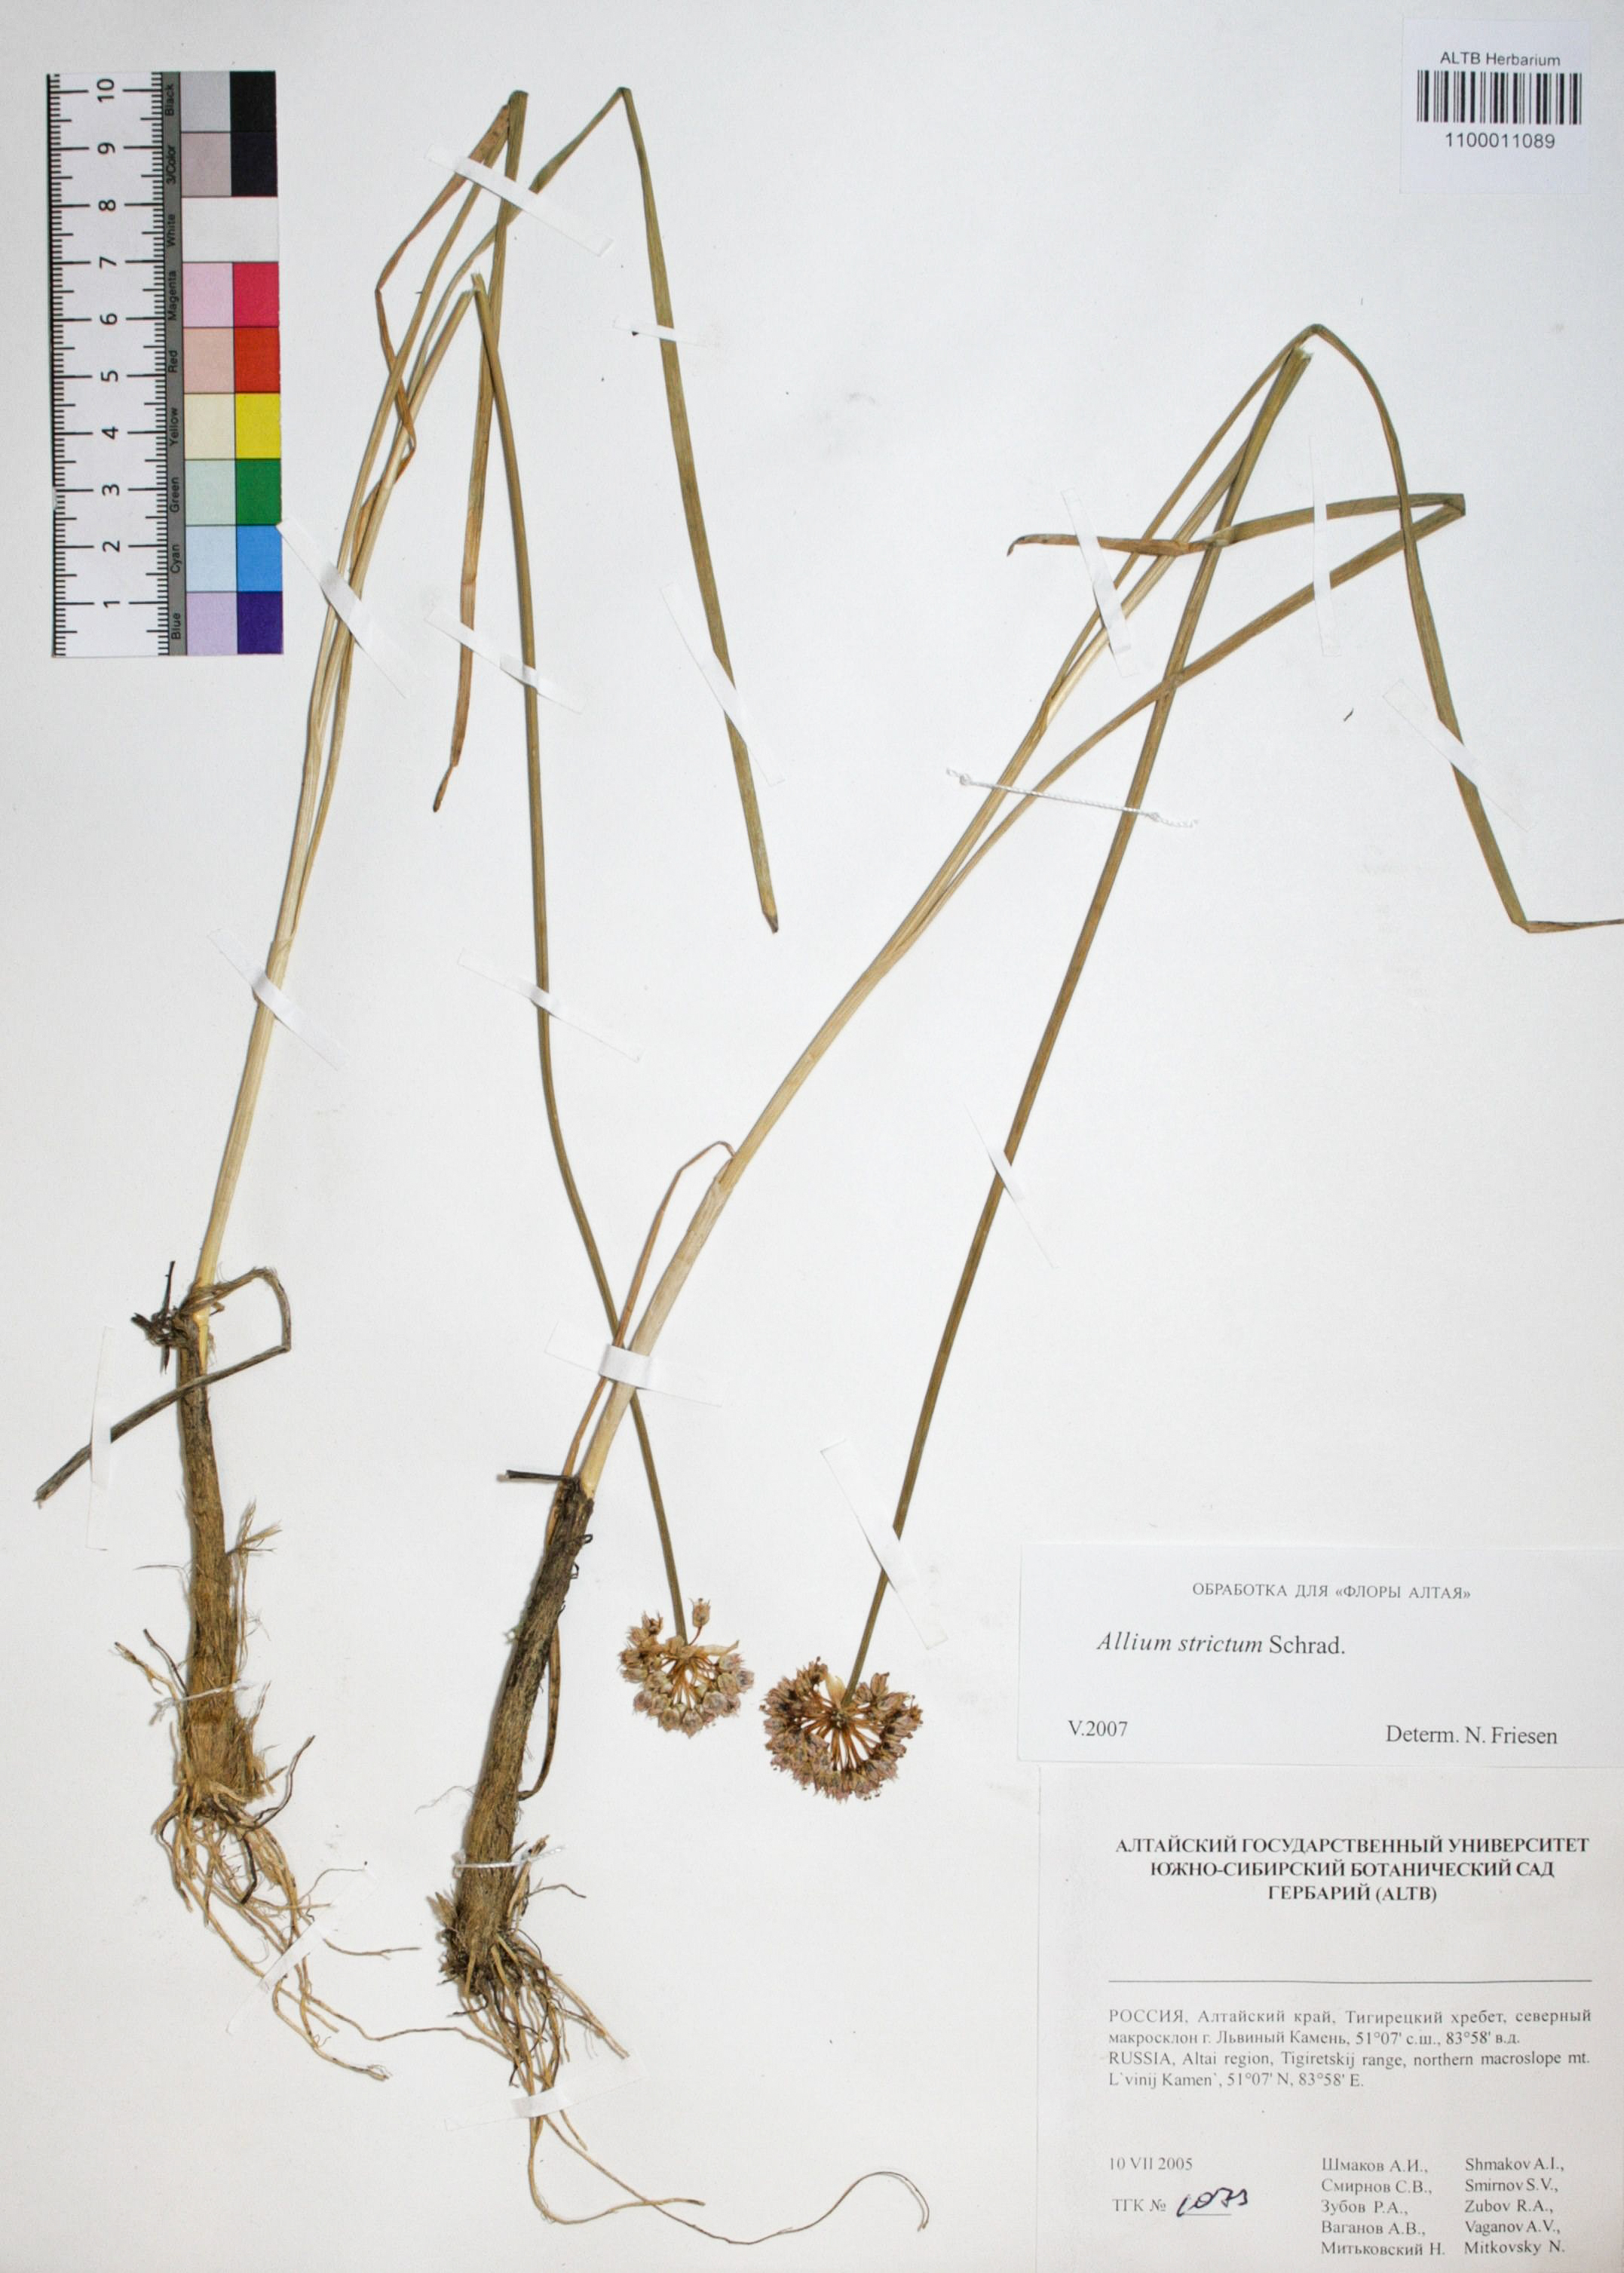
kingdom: Plantae
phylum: Tracheophyta
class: Liliopsida
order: Asparagales
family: Amaryllidaceae
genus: Allium
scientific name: Allium strictum
